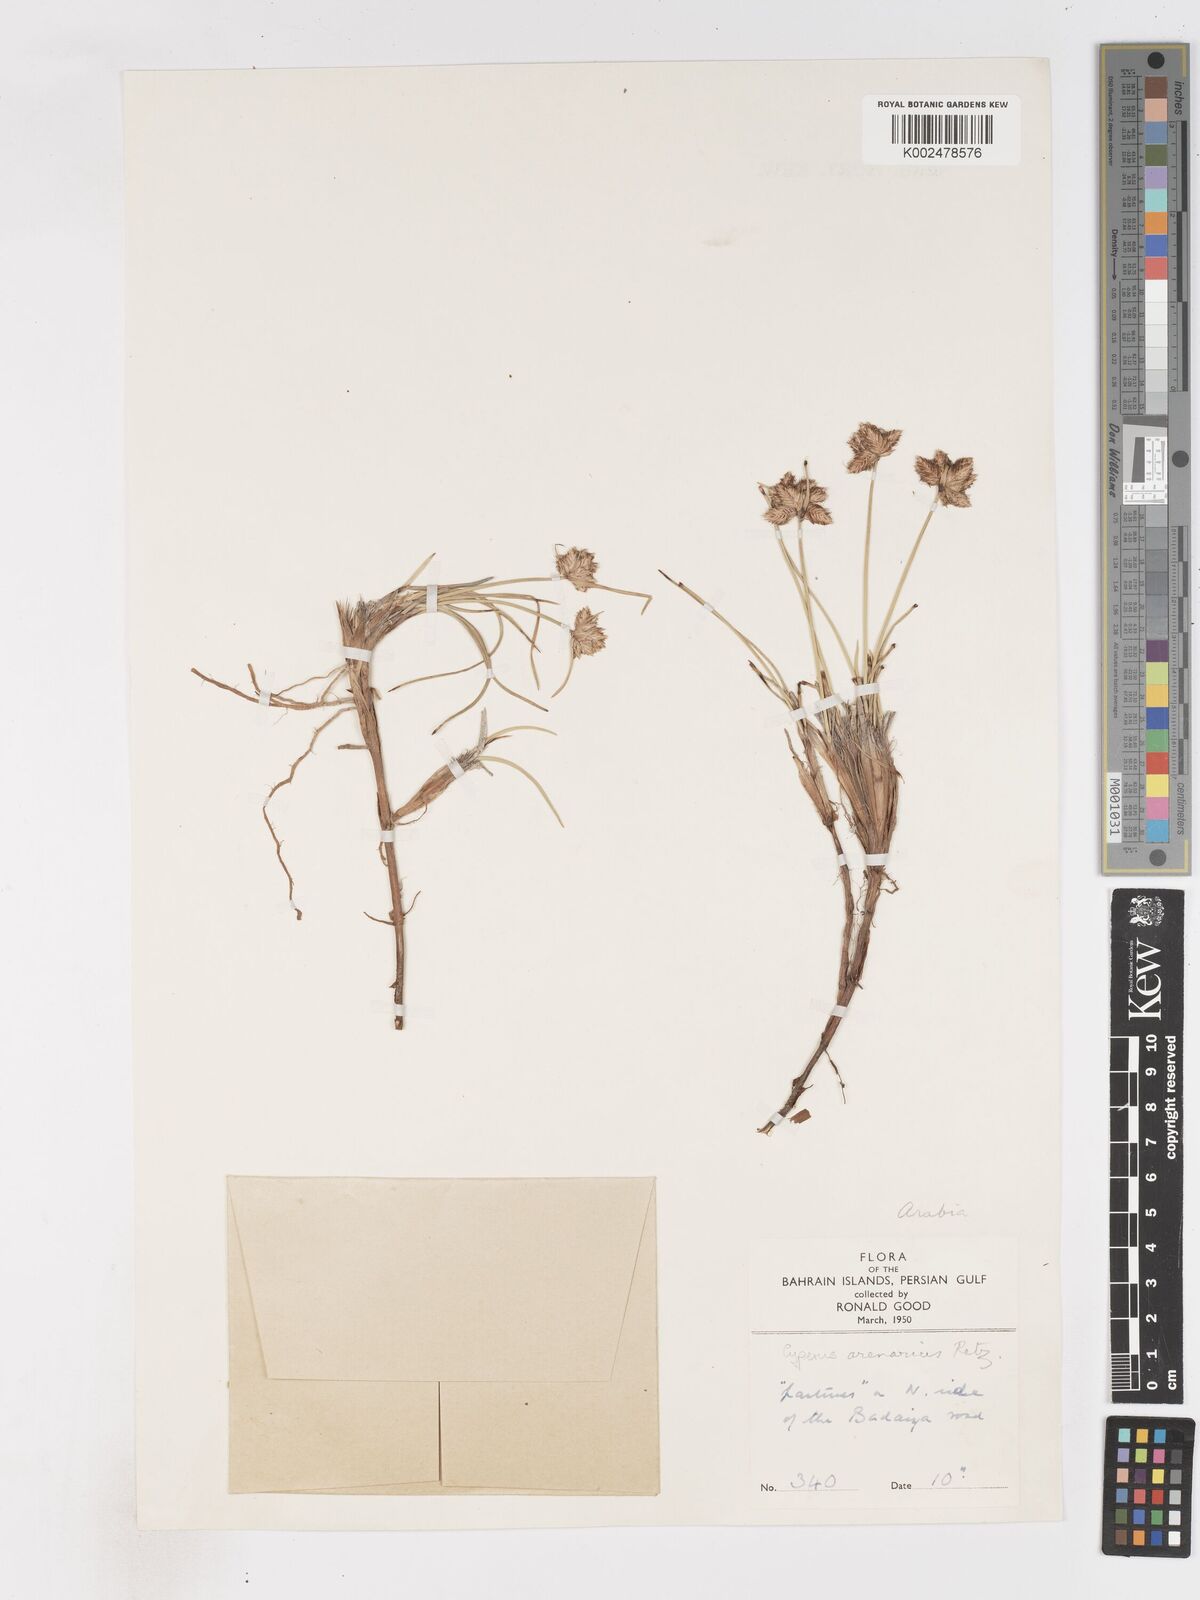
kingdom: Plantae
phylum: Tracheophyta
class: Liliopsida
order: Poales
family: Cyperaceae
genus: Cyperus
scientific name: Cyperus arenarius
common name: Dwarf sedge
